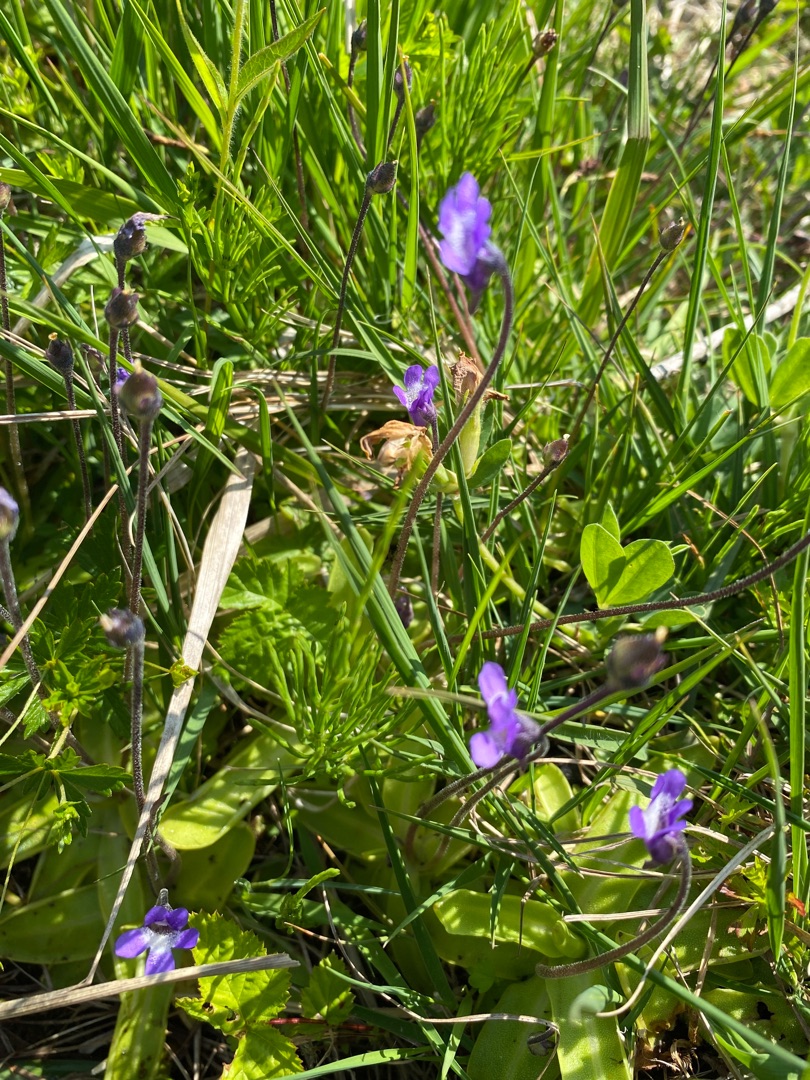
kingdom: Plantae
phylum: Tracheophyta
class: Magnoliopsida
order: Lamiales
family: Lentibulariaceae
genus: Pinguicula
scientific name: Pinguicula vulgaris
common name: Vibefedt
